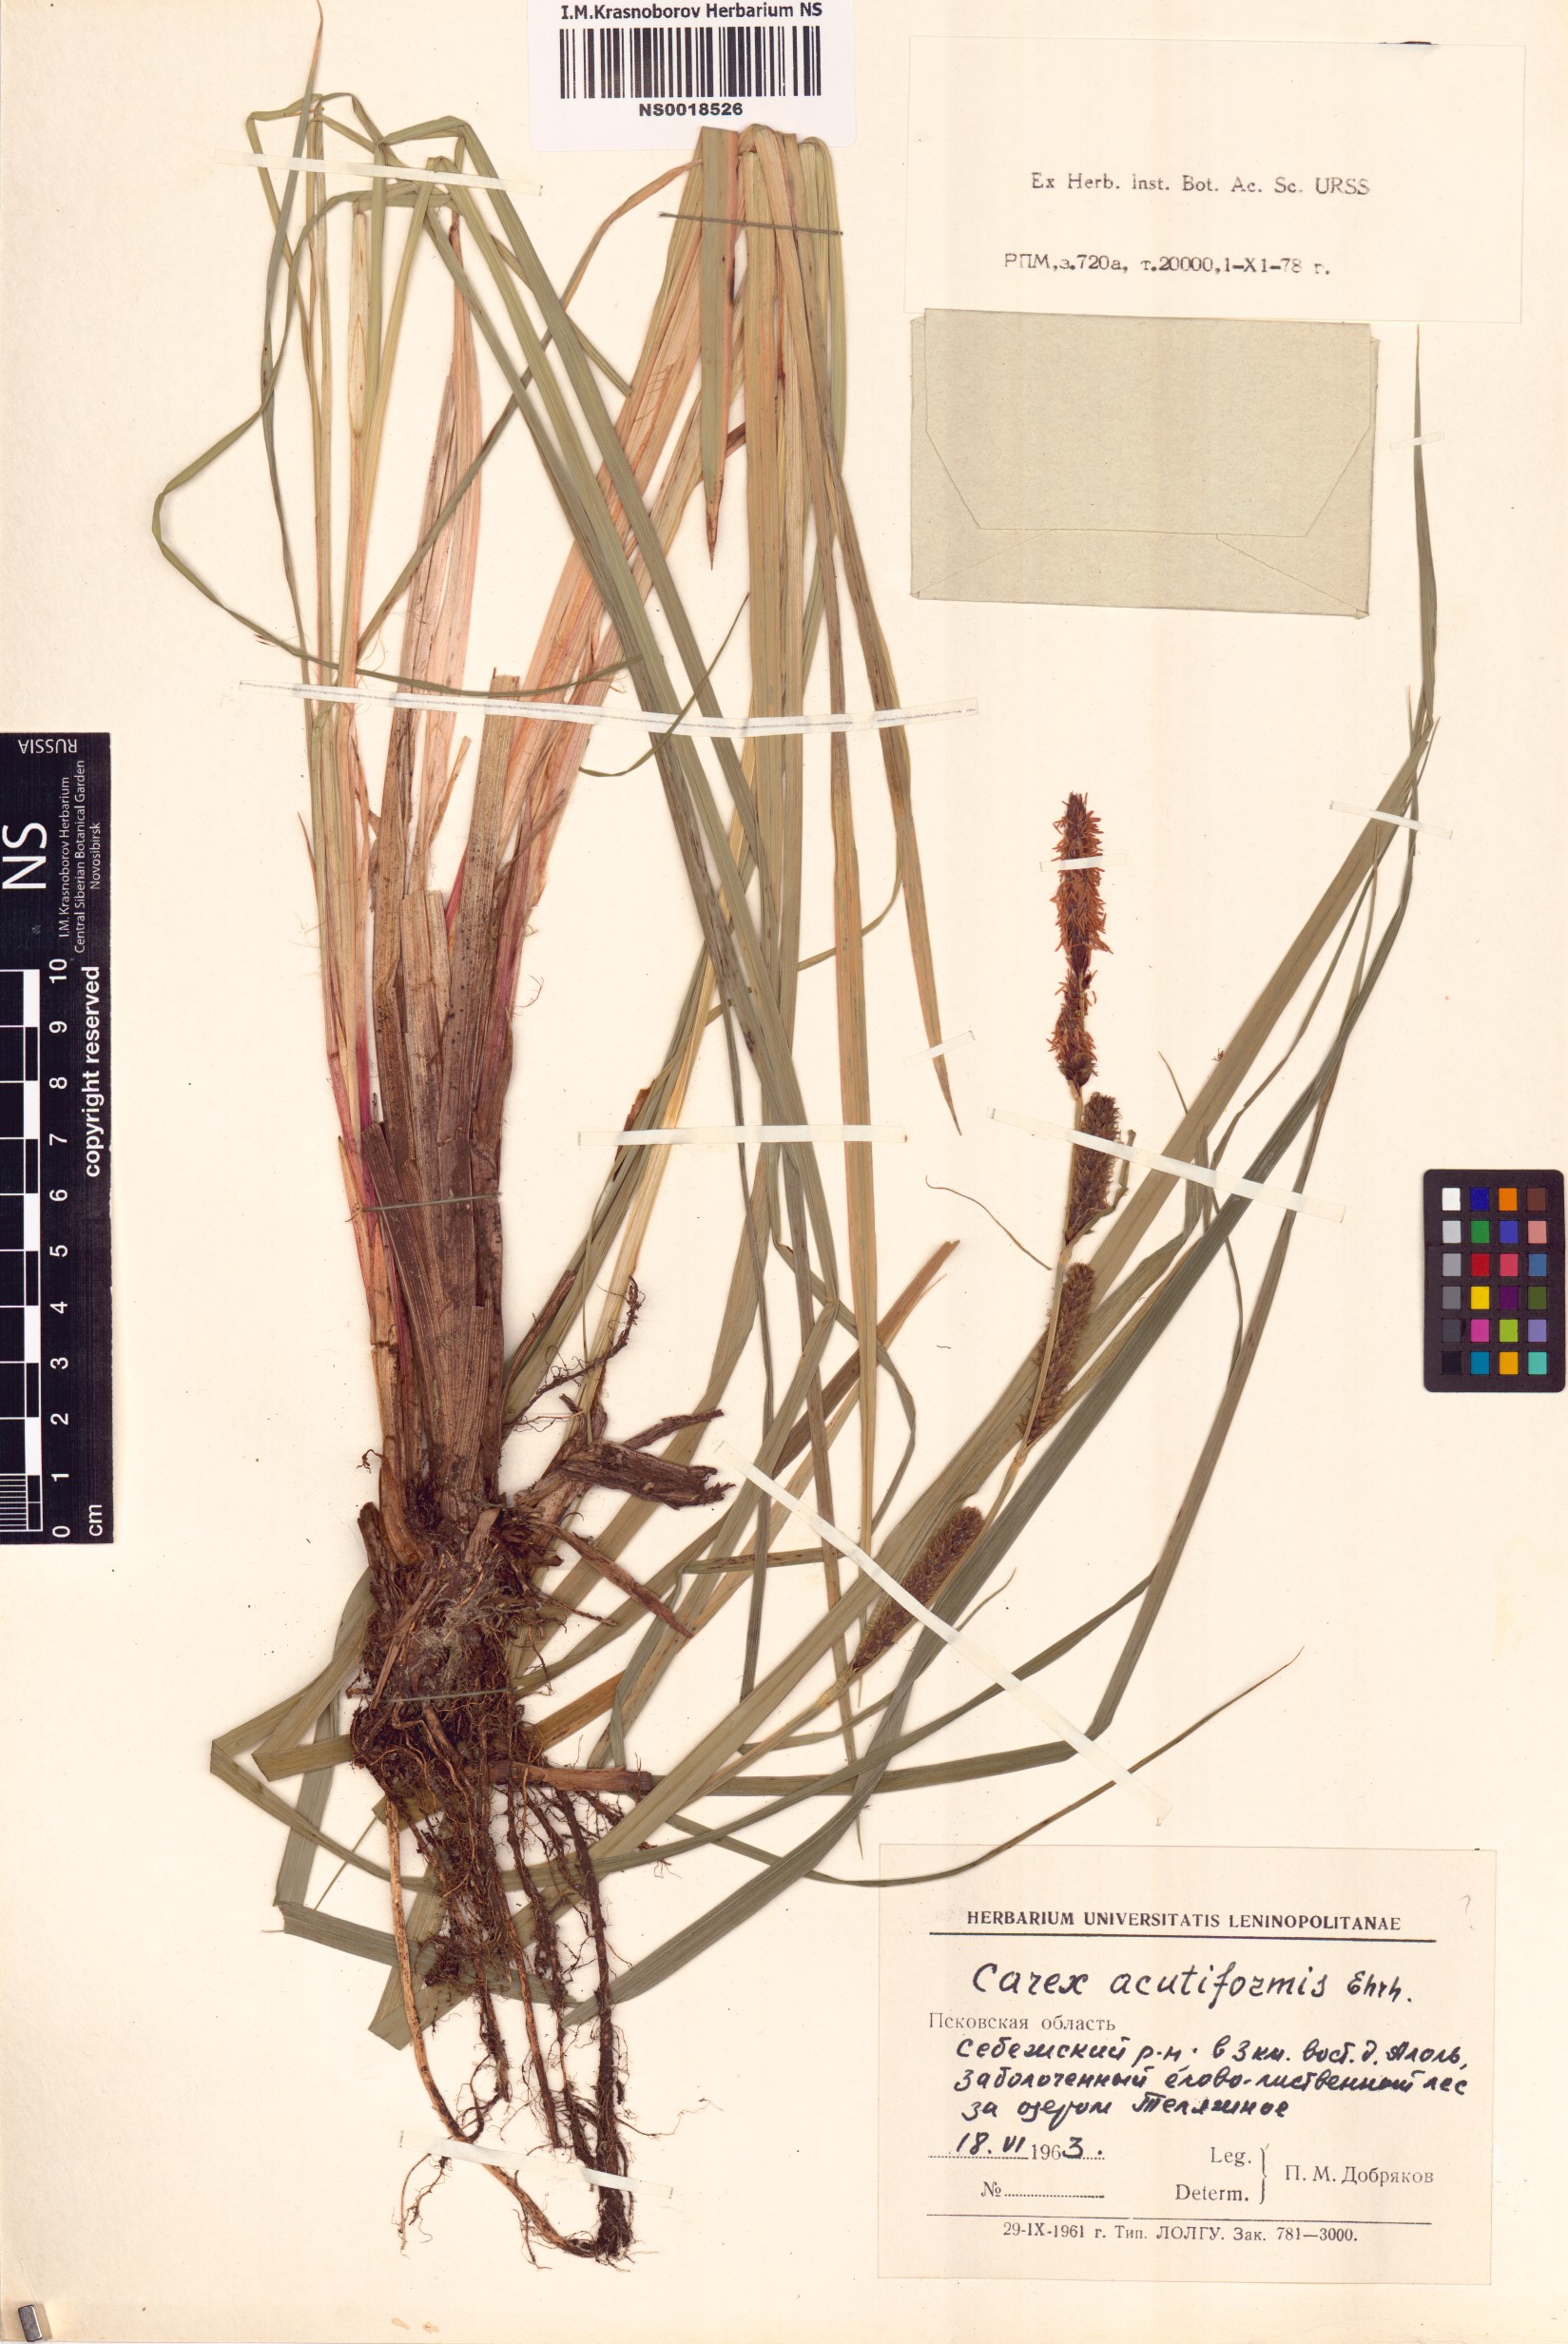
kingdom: Plantae
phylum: Tracheophyta
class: Liliopsida
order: Poales
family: Cyperaceae
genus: Carex
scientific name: Carex acutiformis
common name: Lesser pond-sedge
